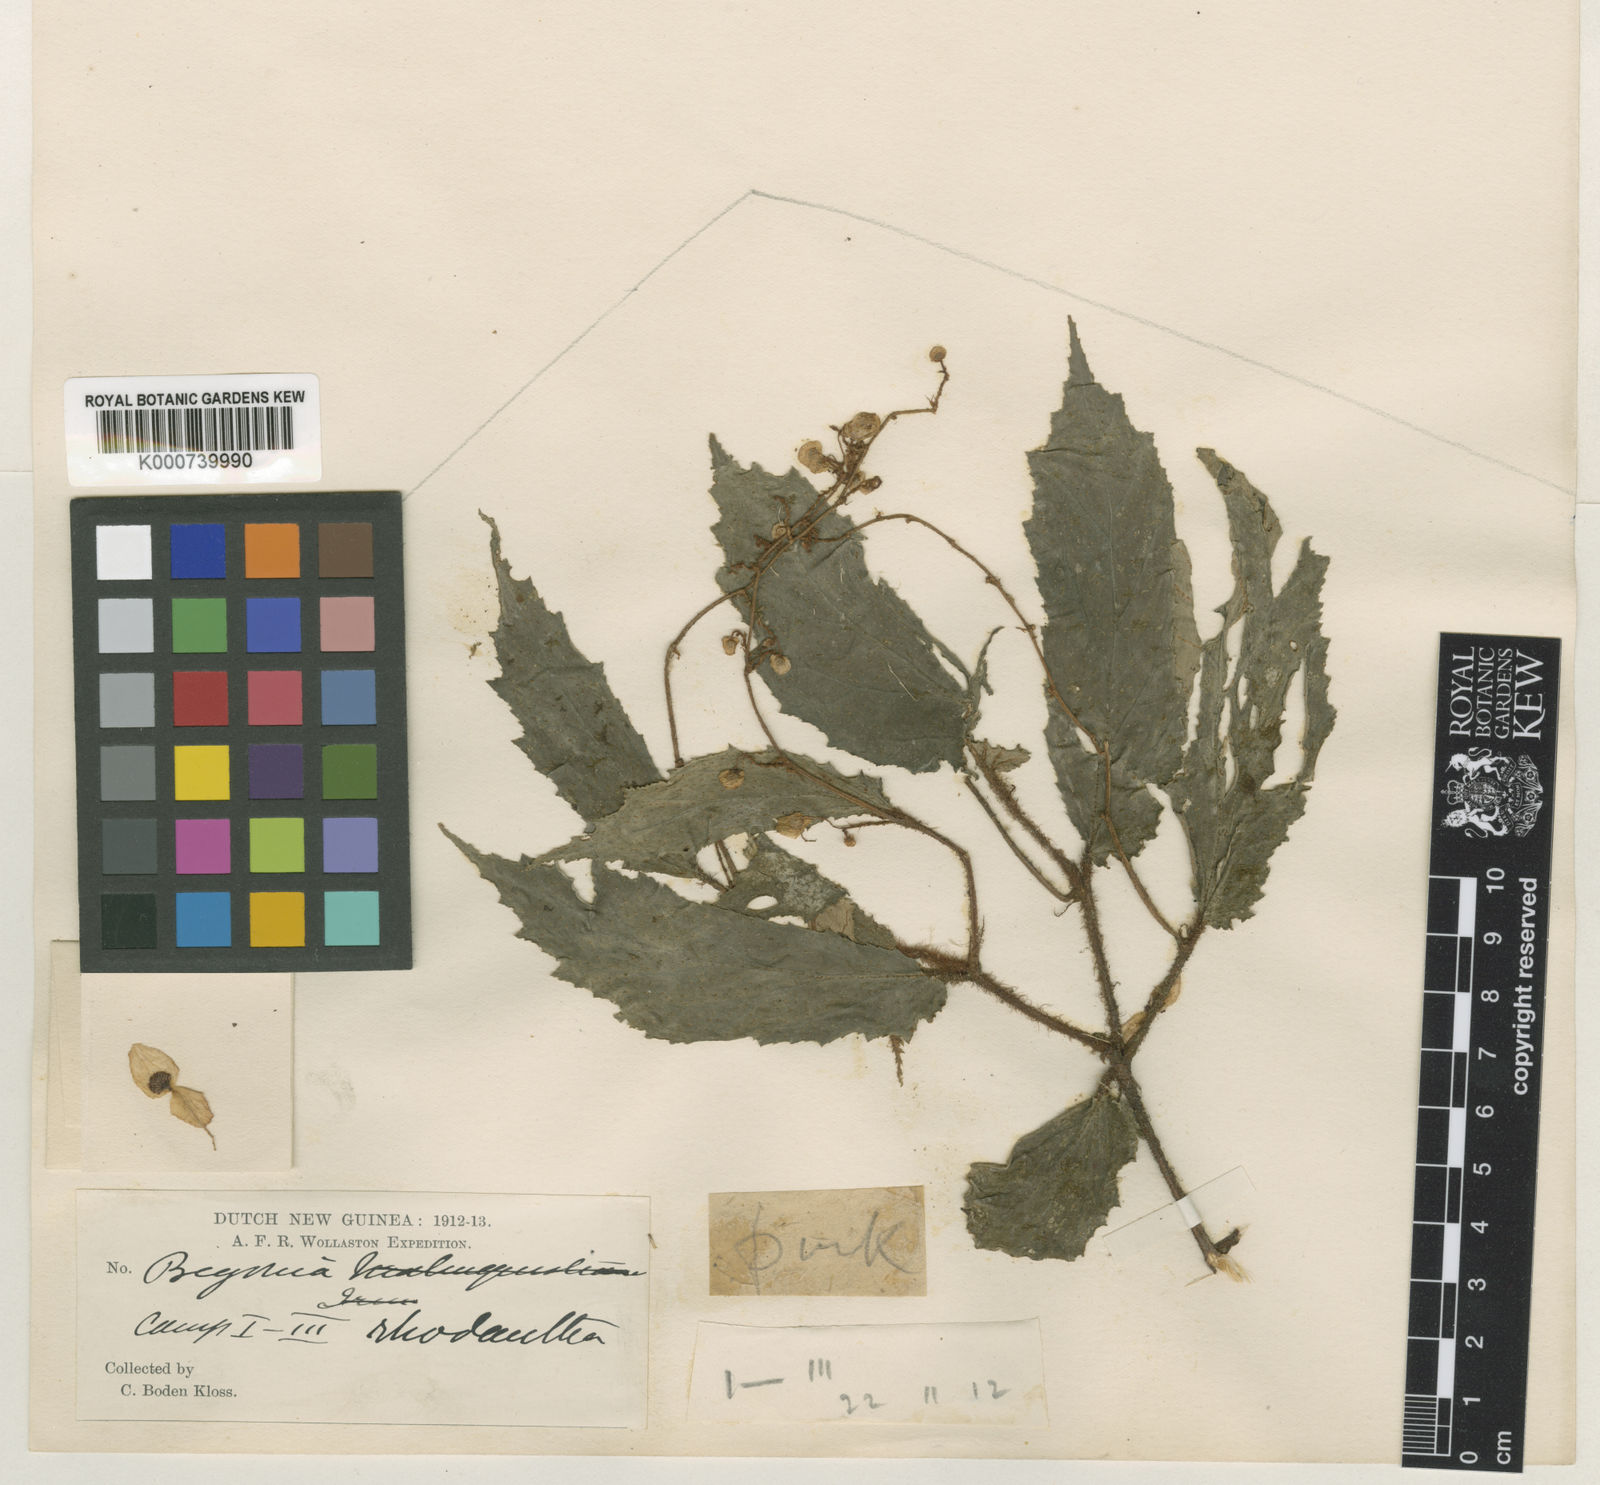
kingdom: Plantae
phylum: Tracheophyta
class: Magnoliopsida
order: Cucurbitales
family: Begoniaceae
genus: Begonia
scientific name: Begonia rhodantha
